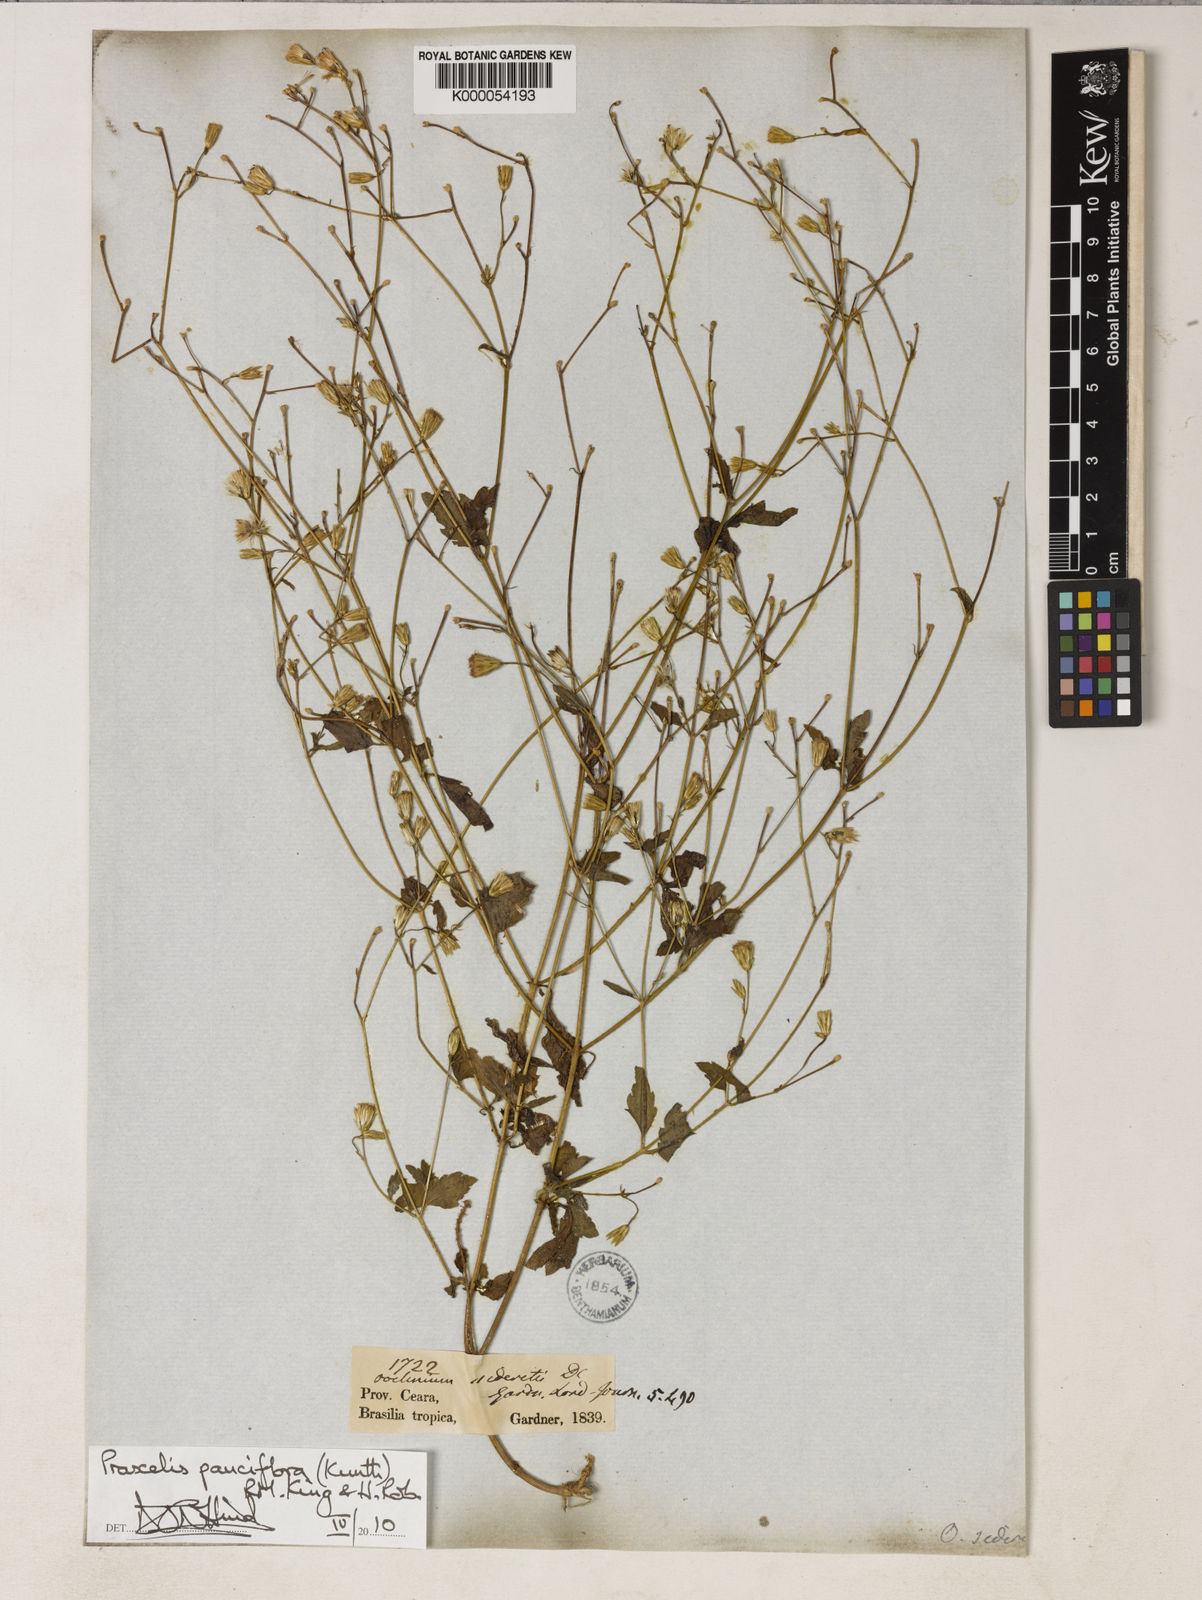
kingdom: Plantae
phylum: Tracheophyta
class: Magnoliopsida
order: Asterales
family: Asteraceae
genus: Praxelis
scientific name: Praxelis diffusa
